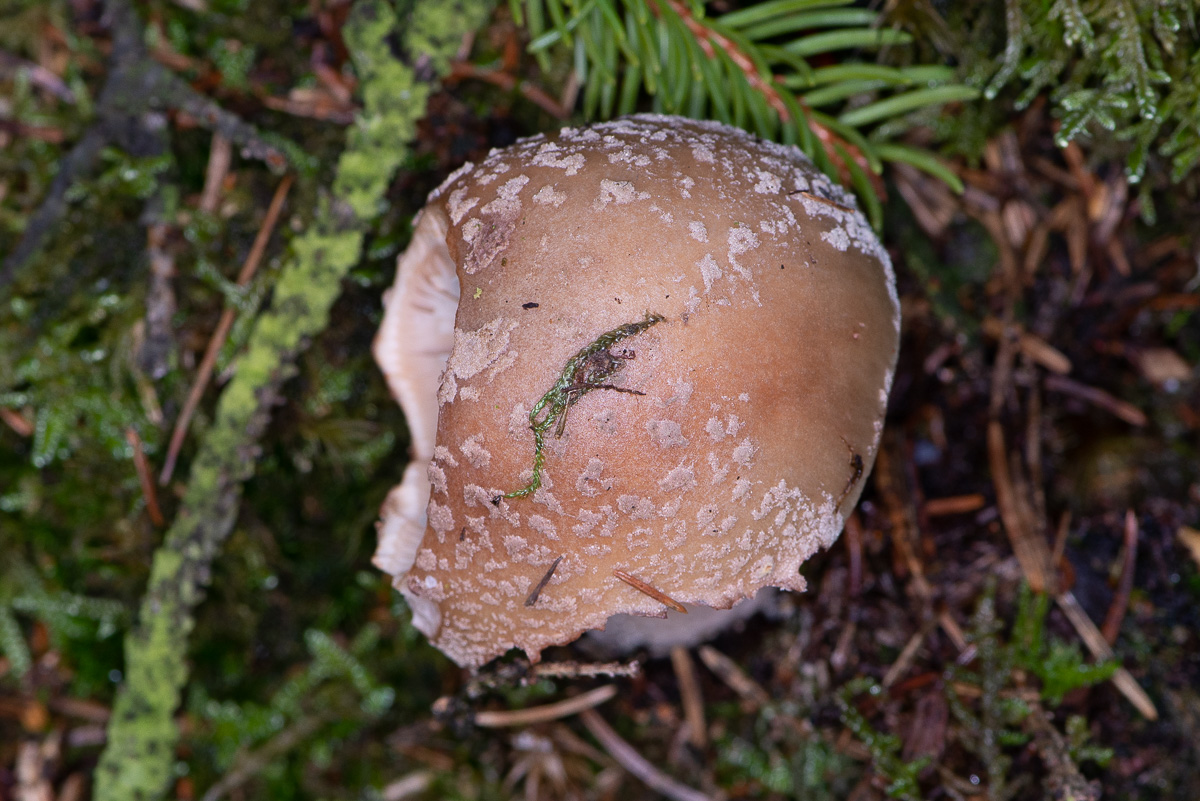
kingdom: Fungi
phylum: Basidiomycota
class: Agaricomycetes
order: Agaricales
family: Amanitaceae
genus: Amanita
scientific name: Amanita rubescens
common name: rødmende fluesvamp
